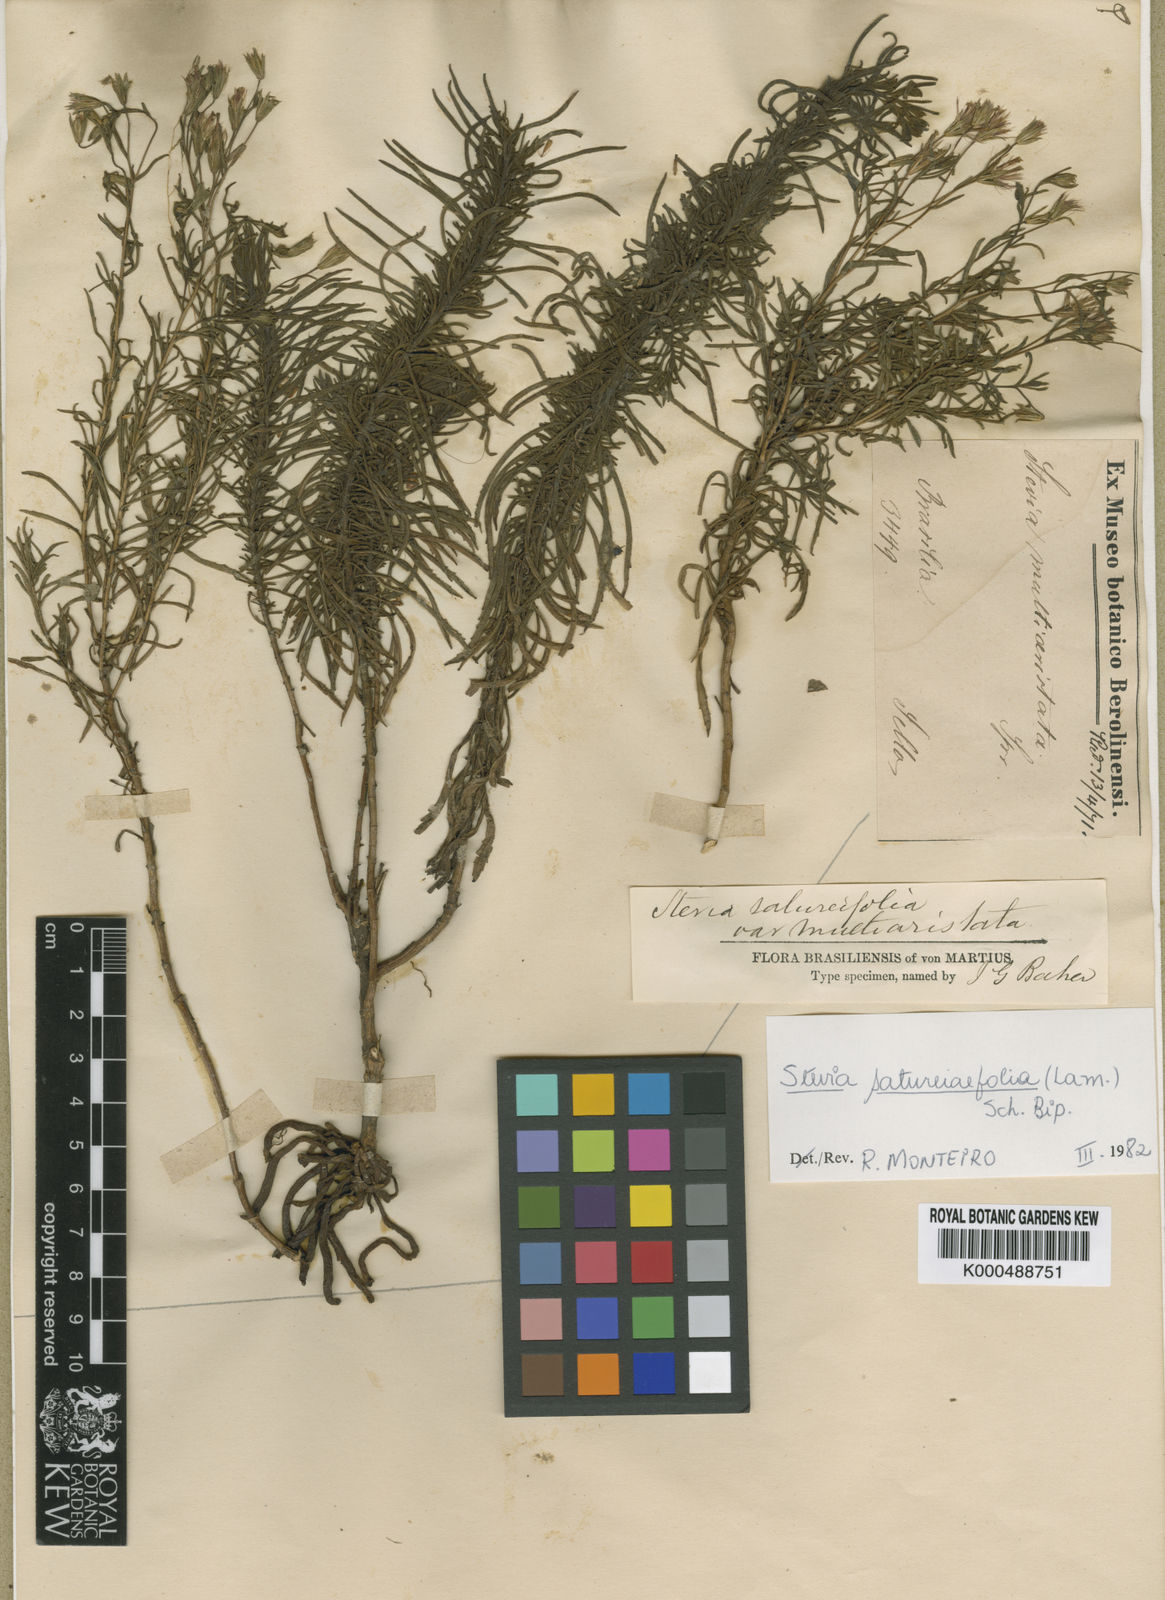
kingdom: Plantae
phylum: Tracheophyta
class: Magnoliopsida
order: Asterales
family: Asteraceae
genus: Stevia
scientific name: Stevia multiaristata
